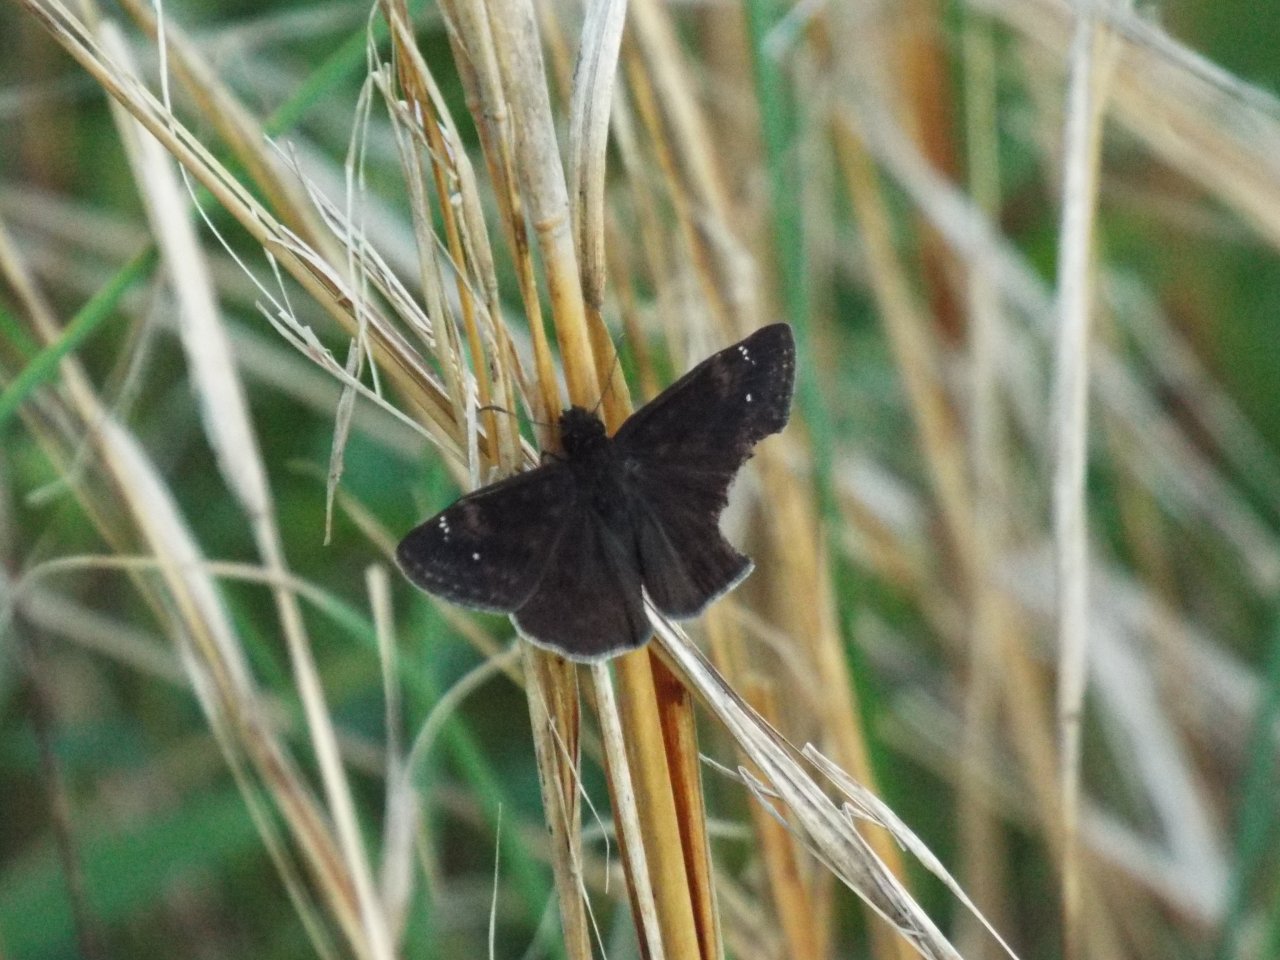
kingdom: Animalia
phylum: Arthropoda
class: Insecta
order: Lepidoptera
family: Hesperiidae
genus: Erynnis
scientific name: Erynnis zarucco
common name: Zarucco Duskywing
